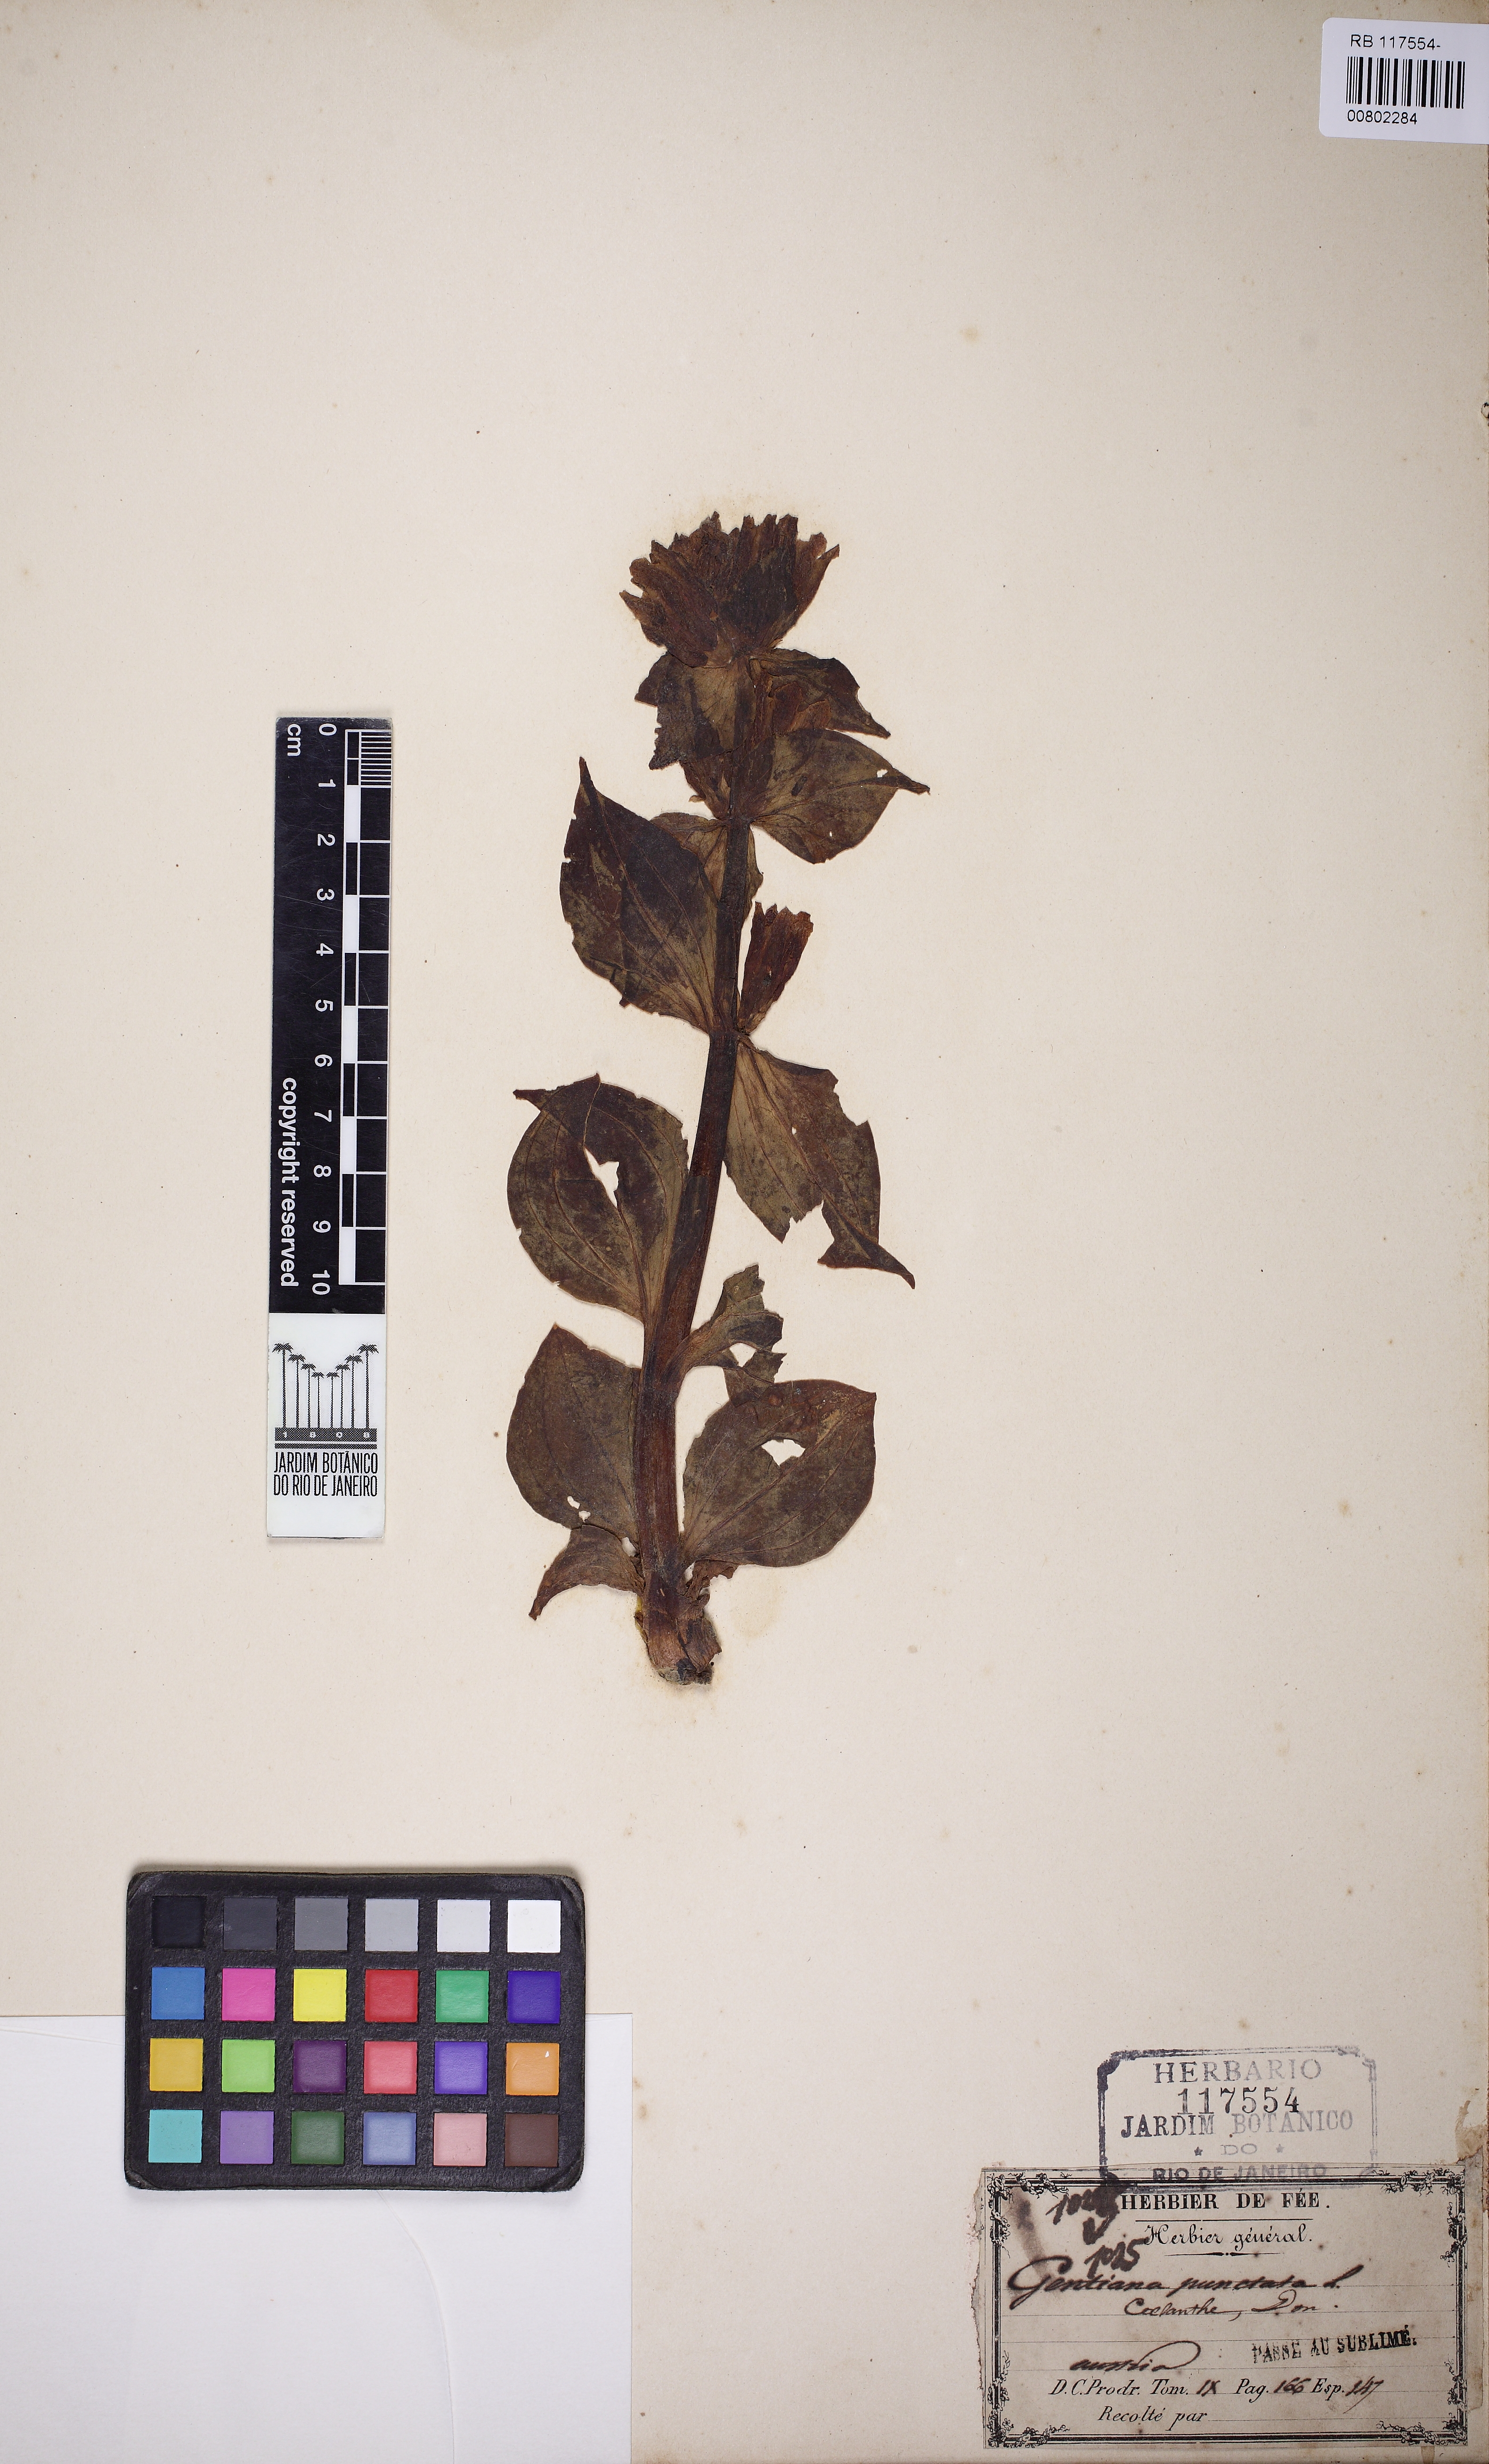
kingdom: Plantae
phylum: Tracheophyta
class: Magnoliopsida
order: Gentianales
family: Gentianaceae
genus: Gentiana
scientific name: Gentiana punctata
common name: Spotted gentian
